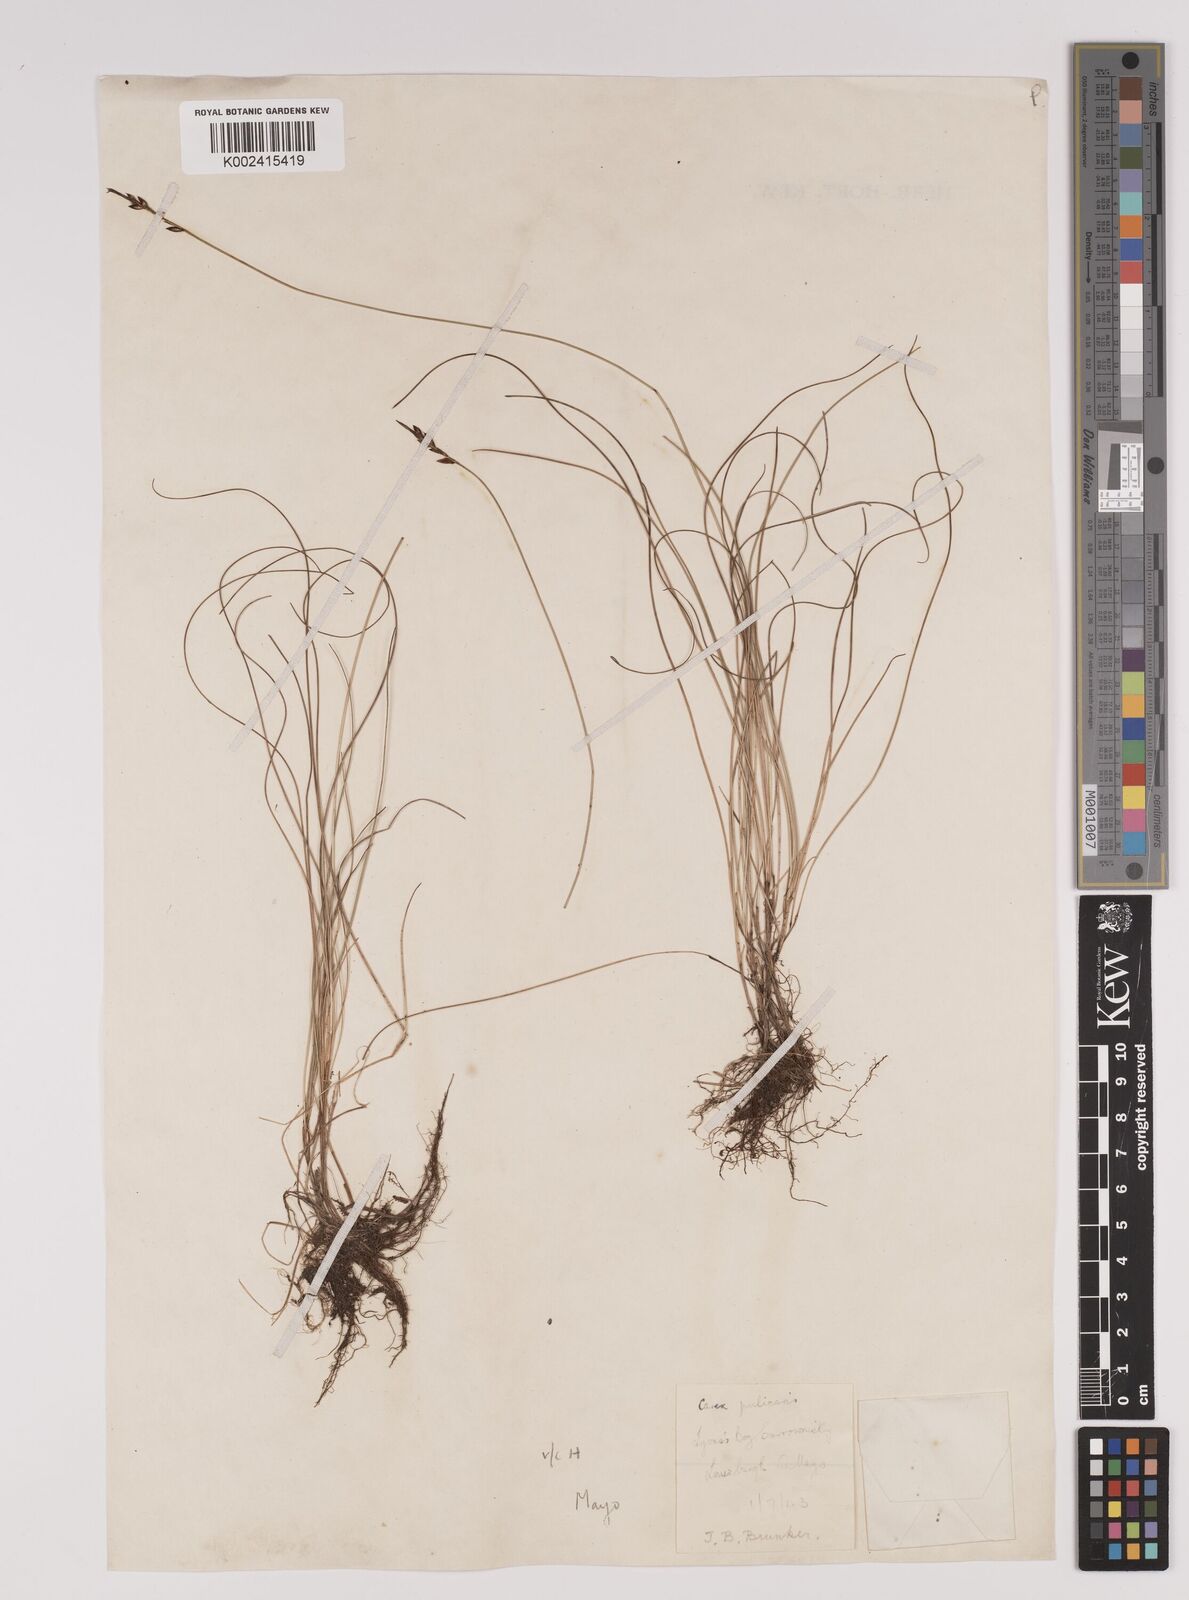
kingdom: Plantae
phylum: Tracheophyta
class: Liliopsida
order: Poales
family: Cyperaceae
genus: Carex
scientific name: Carex pulicaris
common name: Flea sedge
